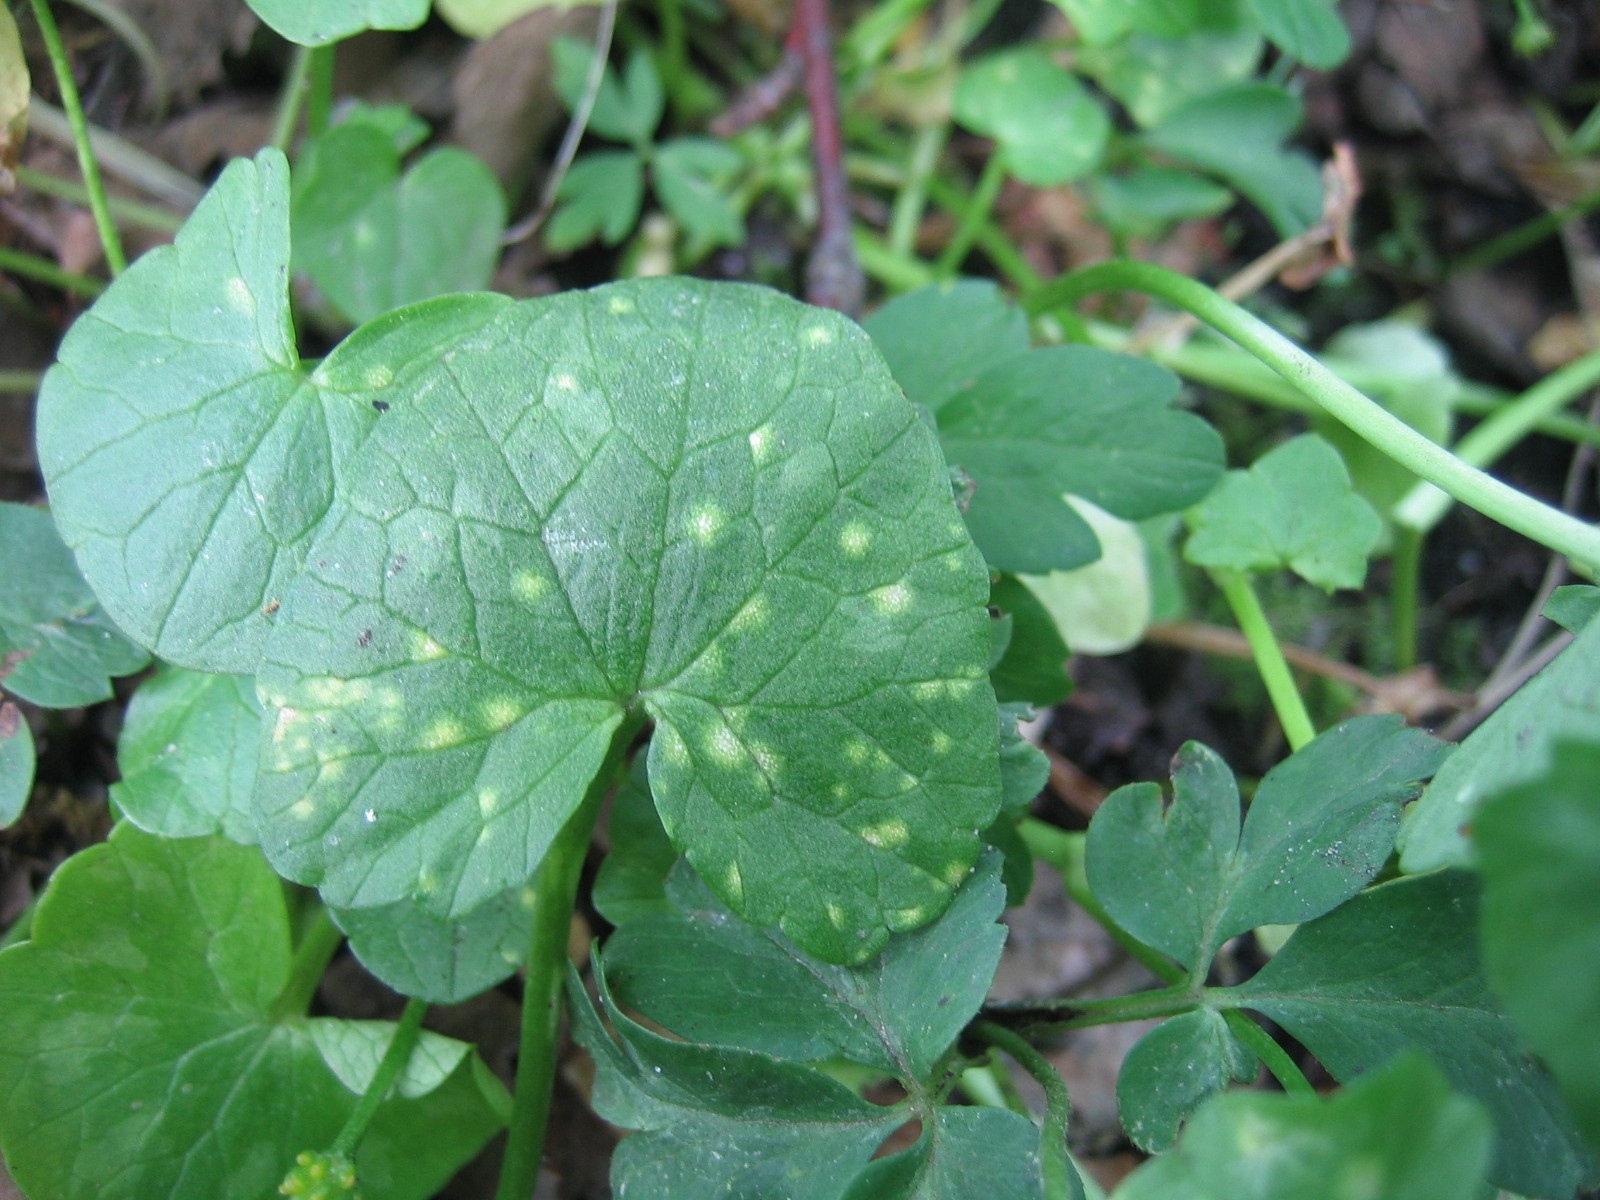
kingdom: Fungi
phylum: Basidiomycota
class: Exobasidiomycetes
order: Entylomatales
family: Entylomataceae
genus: Entyloma
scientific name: Entyloma ficariae
